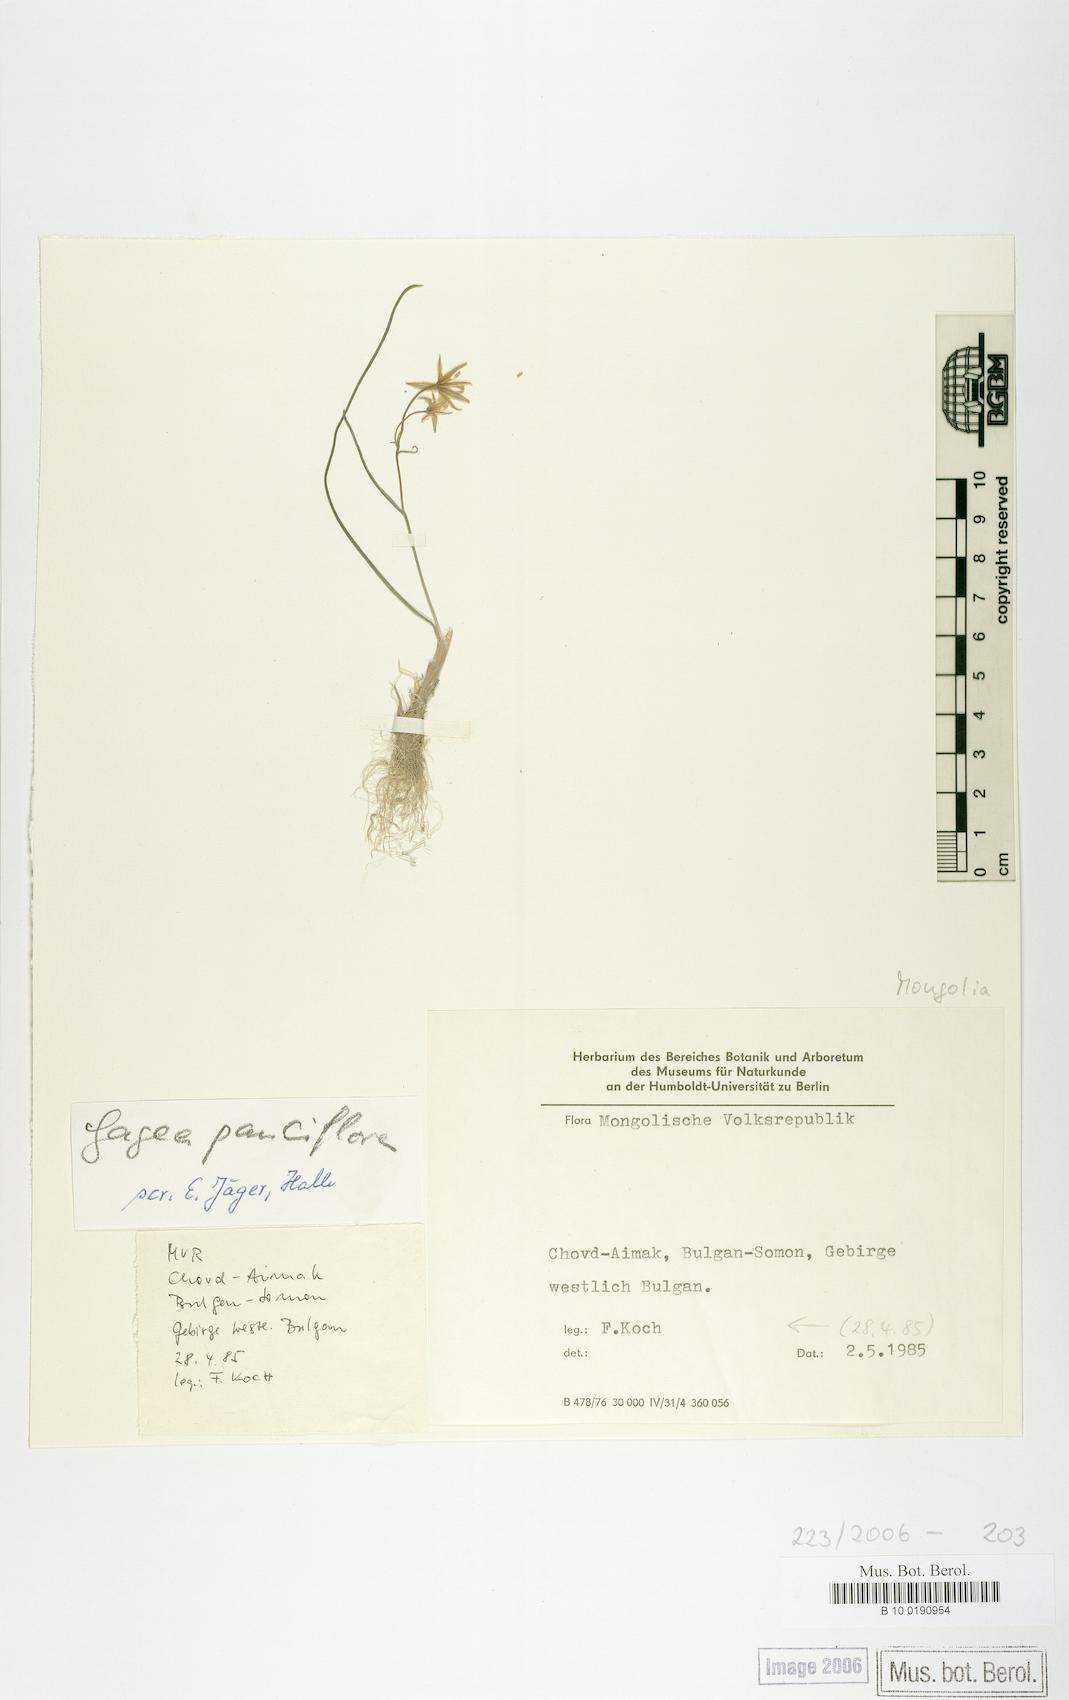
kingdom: Plantae
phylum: Tracheophyta
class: Liliopsida
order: Liliales
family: Liliaceae
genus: Gagea
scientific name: Gagea pauciflora
